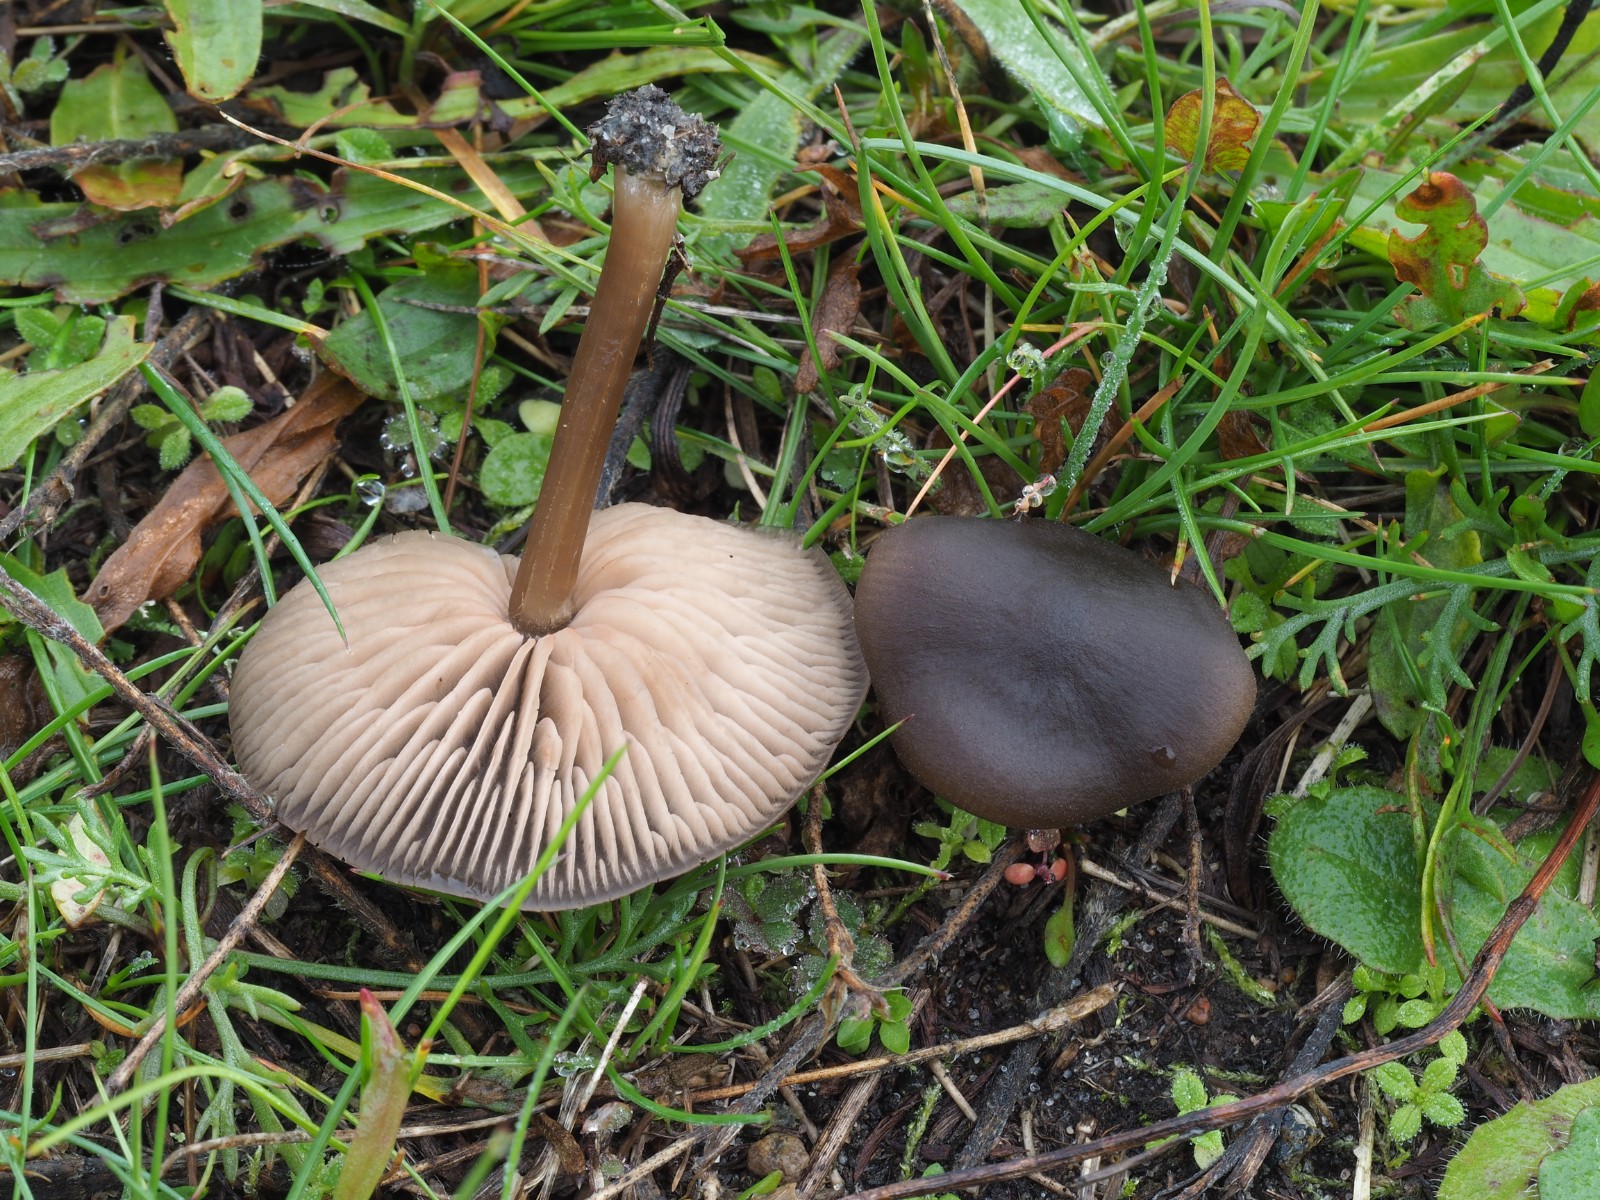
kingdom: Fungi
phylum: Basidiomycota
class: Agaricomycetes
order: Agaricales
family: Entolomataceae
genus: Entoloma
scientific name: Entoloma
